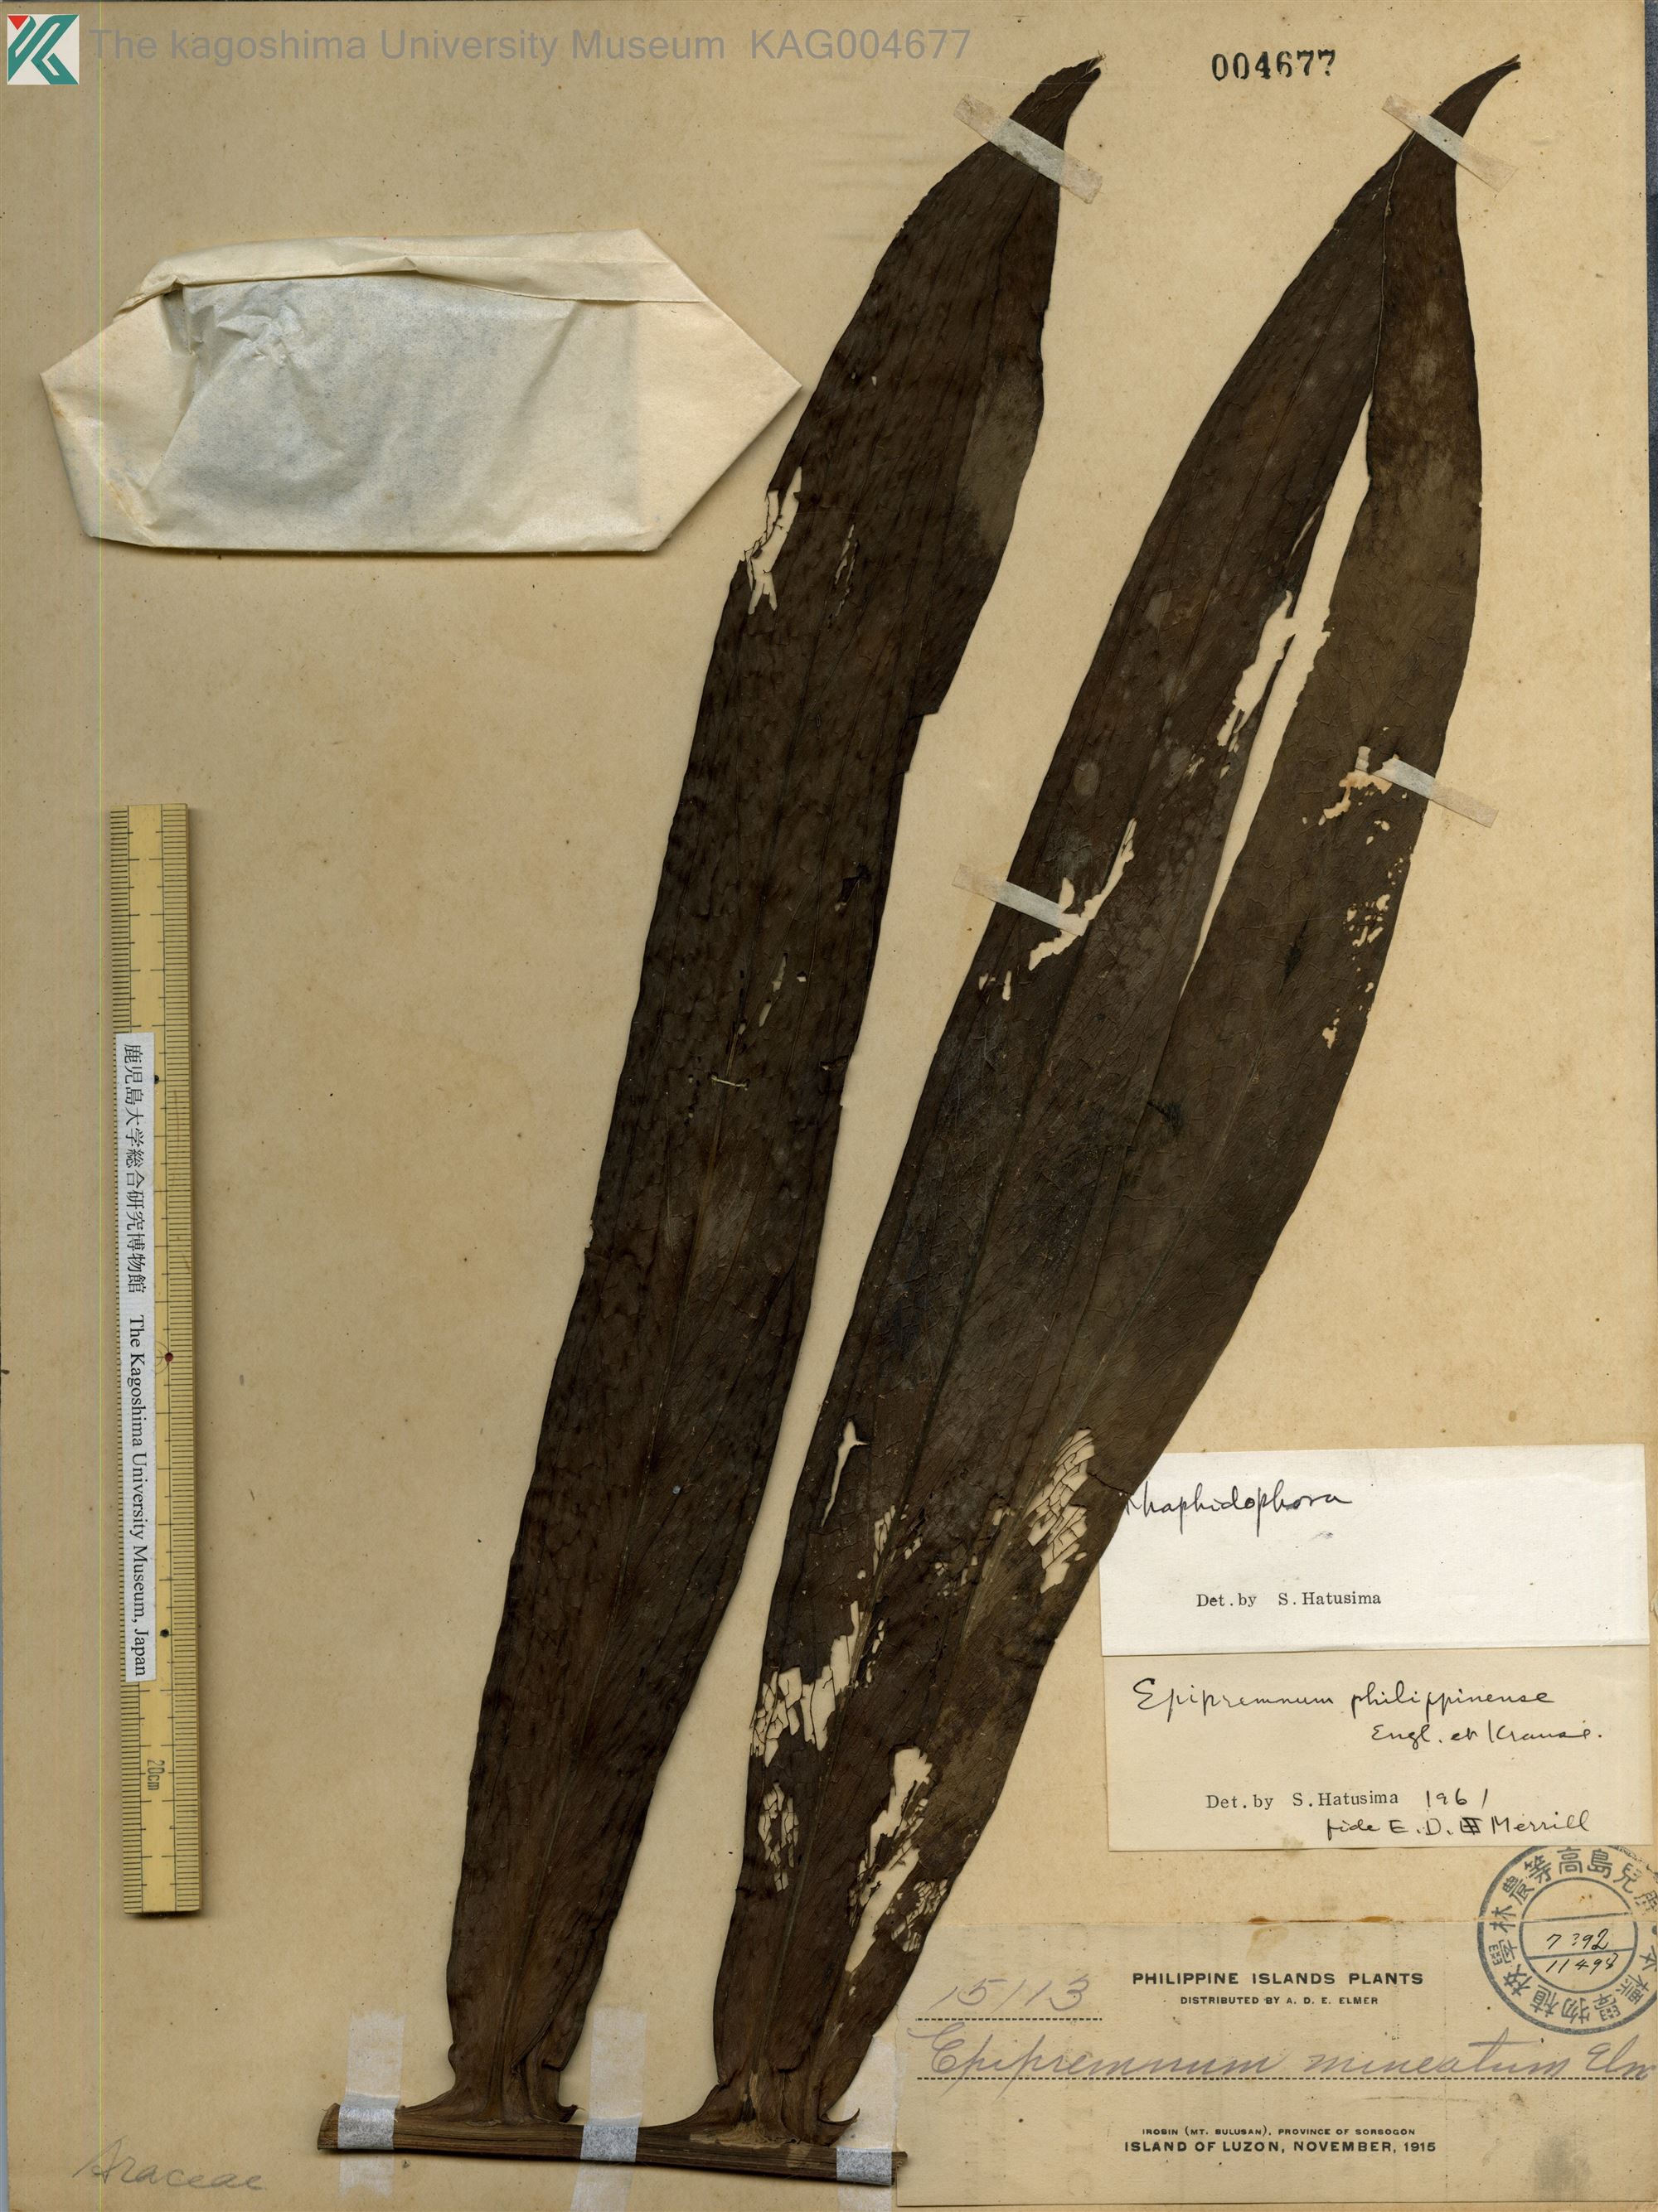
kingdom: Plantae
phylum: Tracheophyta
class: Liliopsida
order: Alismatales
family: Araceae
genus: Rhaphidophora
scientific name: Rhaphidophora philippinensis
